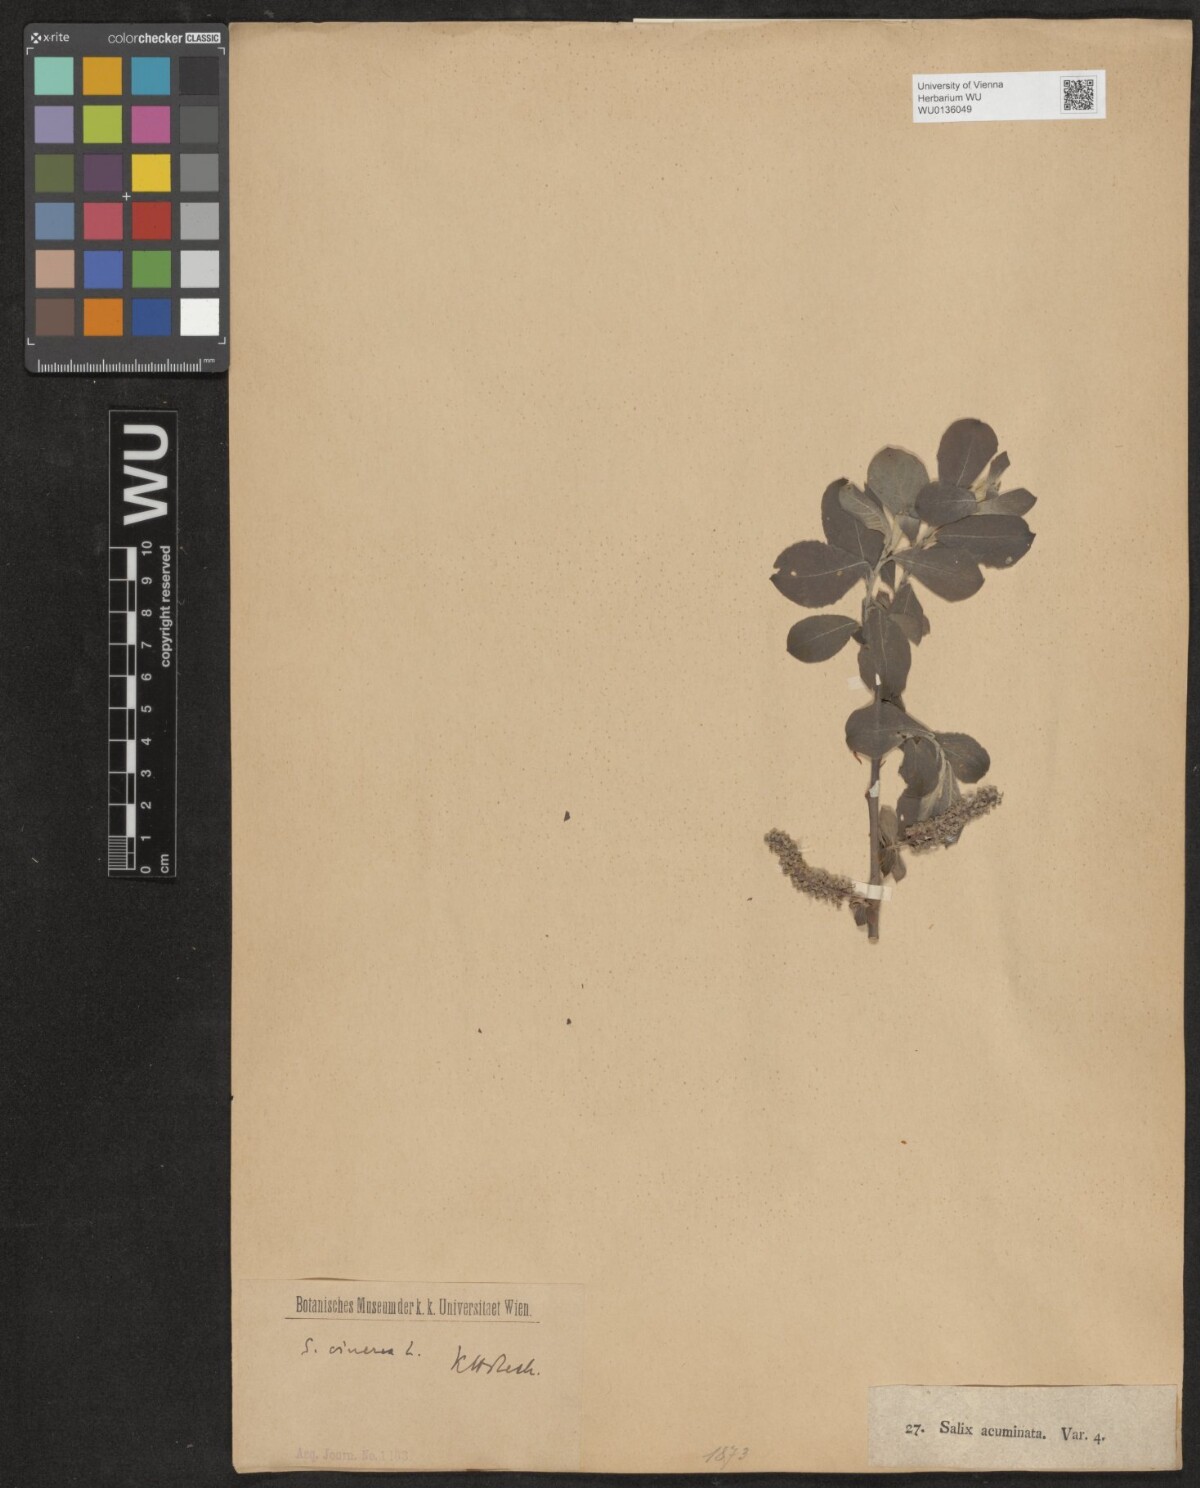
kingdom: Plantae
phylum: Tracheophyta
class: Magnoliopsida
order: Malpighiales
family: Salicaceae
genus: Salix
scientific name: Salix cinerea
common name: Common sallow
